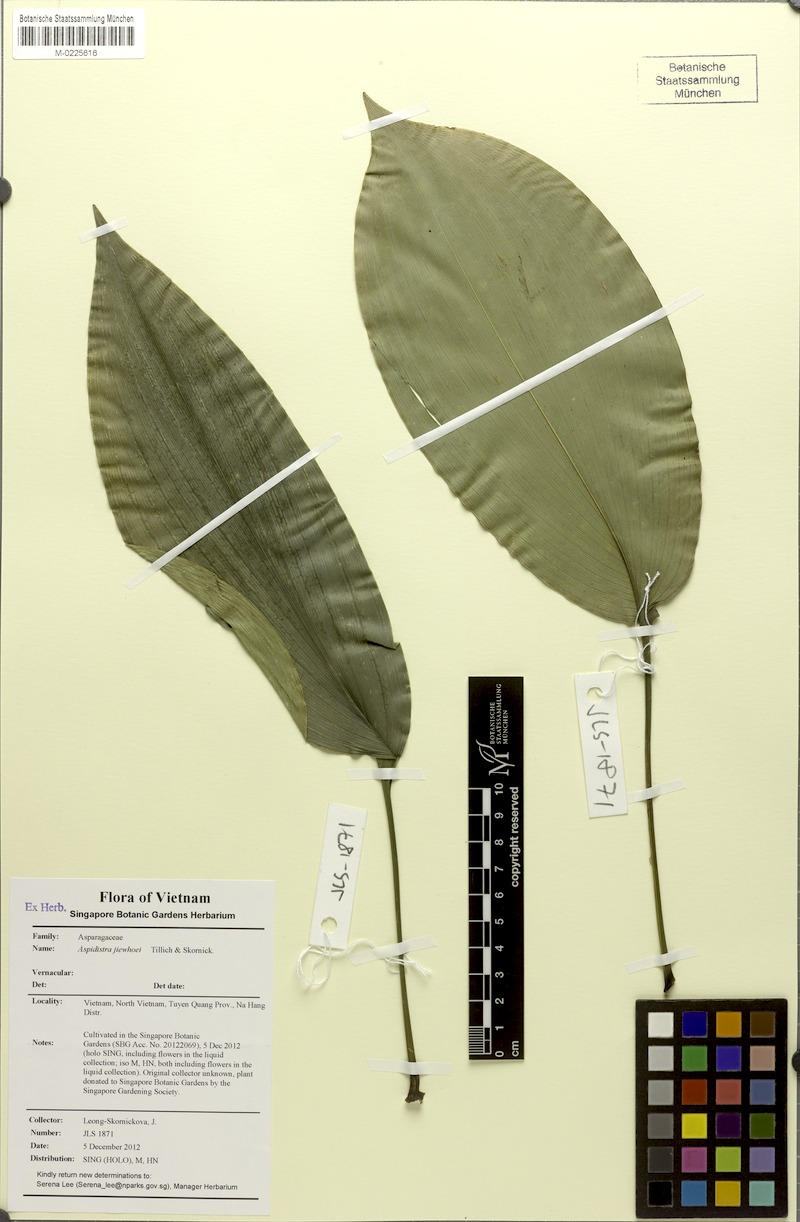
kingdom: Plantae
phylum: Tracheophyta
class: Liliopsida
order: Asparagales
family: Asparagaceae
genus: Aspidistra
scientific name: Aspidistra jiewhoei
